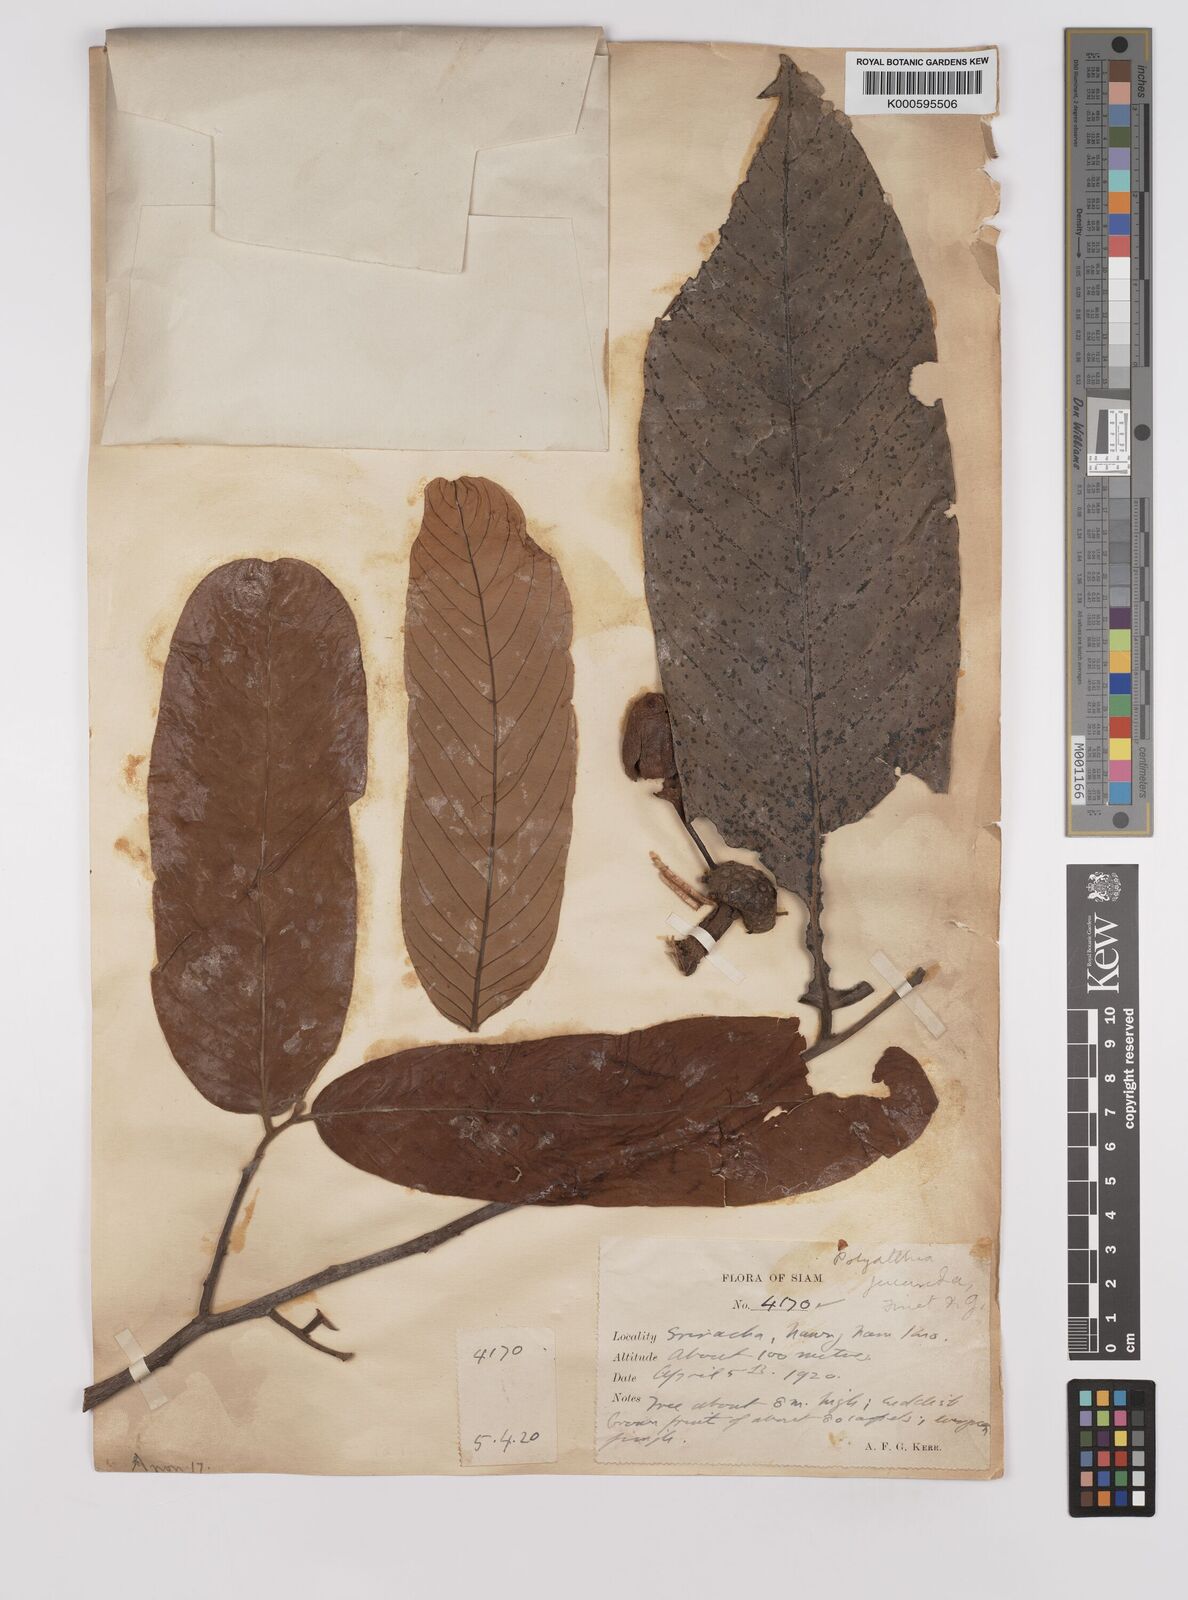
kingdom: Plantae
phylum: Tracheophyta
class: Magnoliopsida
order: Magnoliales
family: Annonaceae
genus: Polyalthia
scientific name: Polyalthia laui
